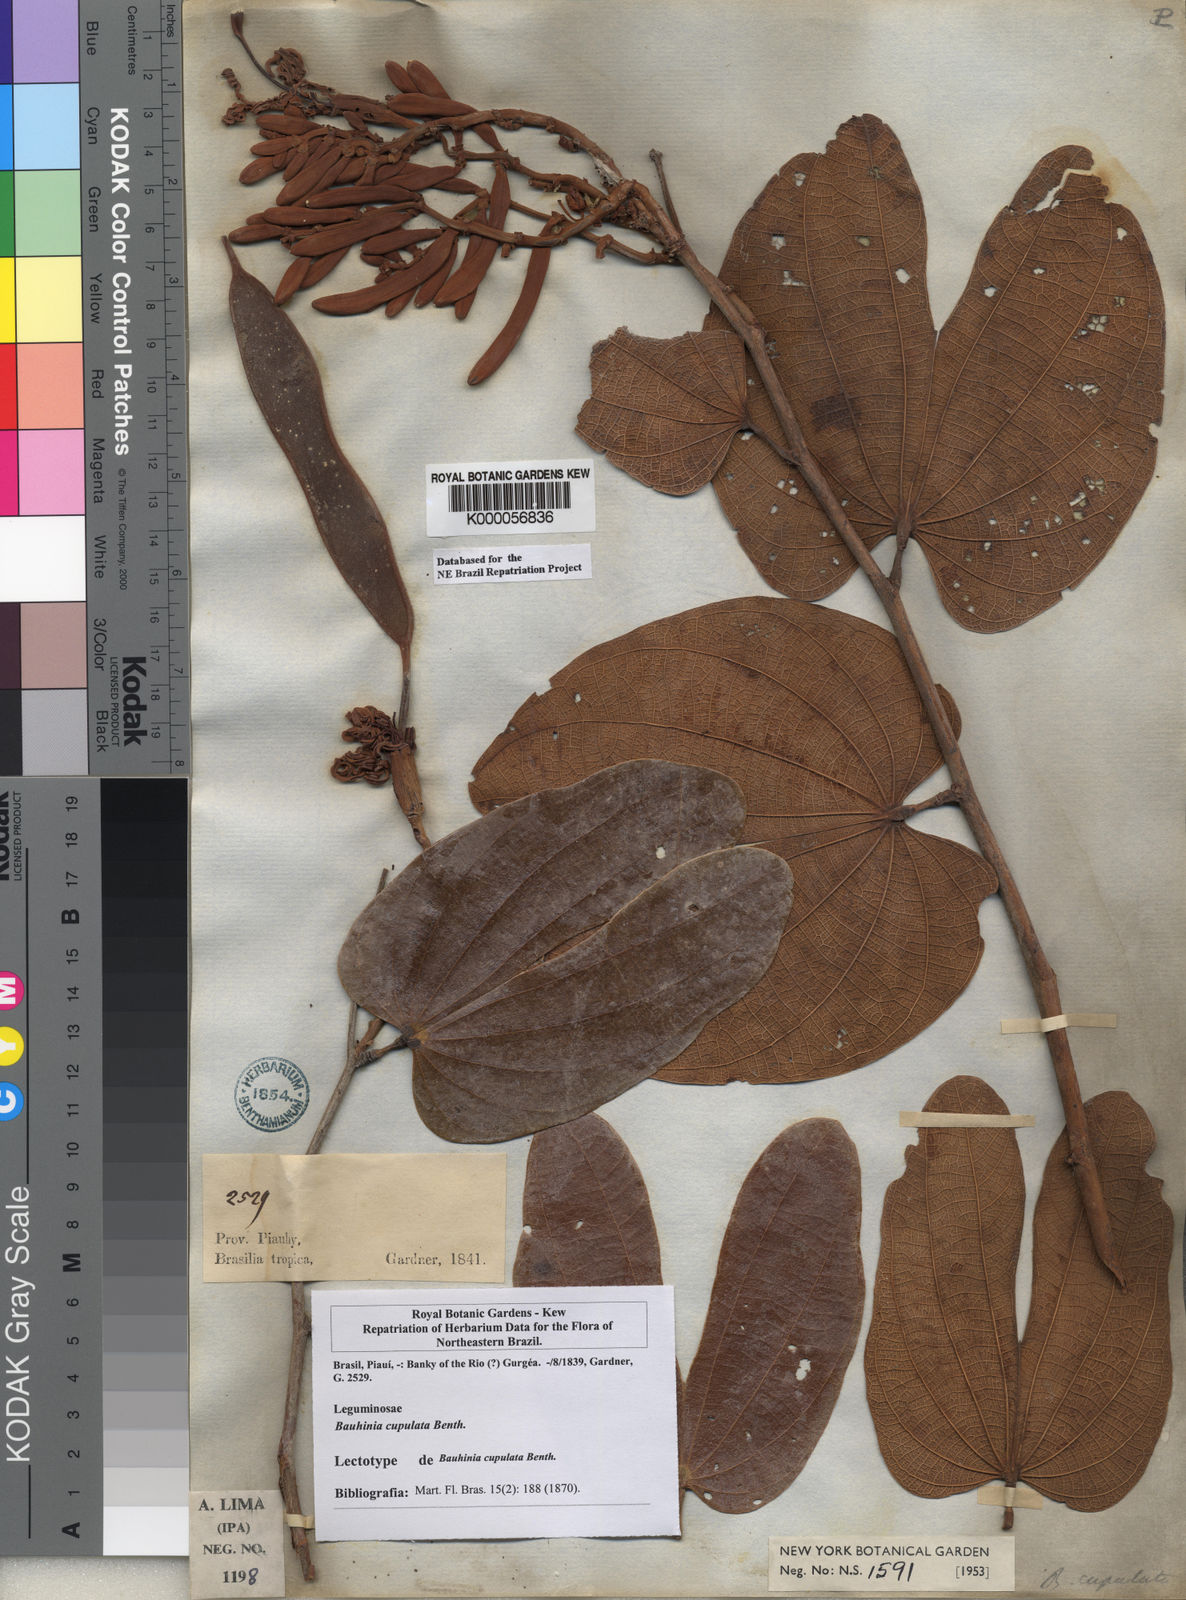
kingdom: Plantae
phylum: Tracheophyta
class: Magnoliopsida
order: Fabales
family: Fabaceae
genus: Bauhinia
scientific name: Bauhinia cupulata
